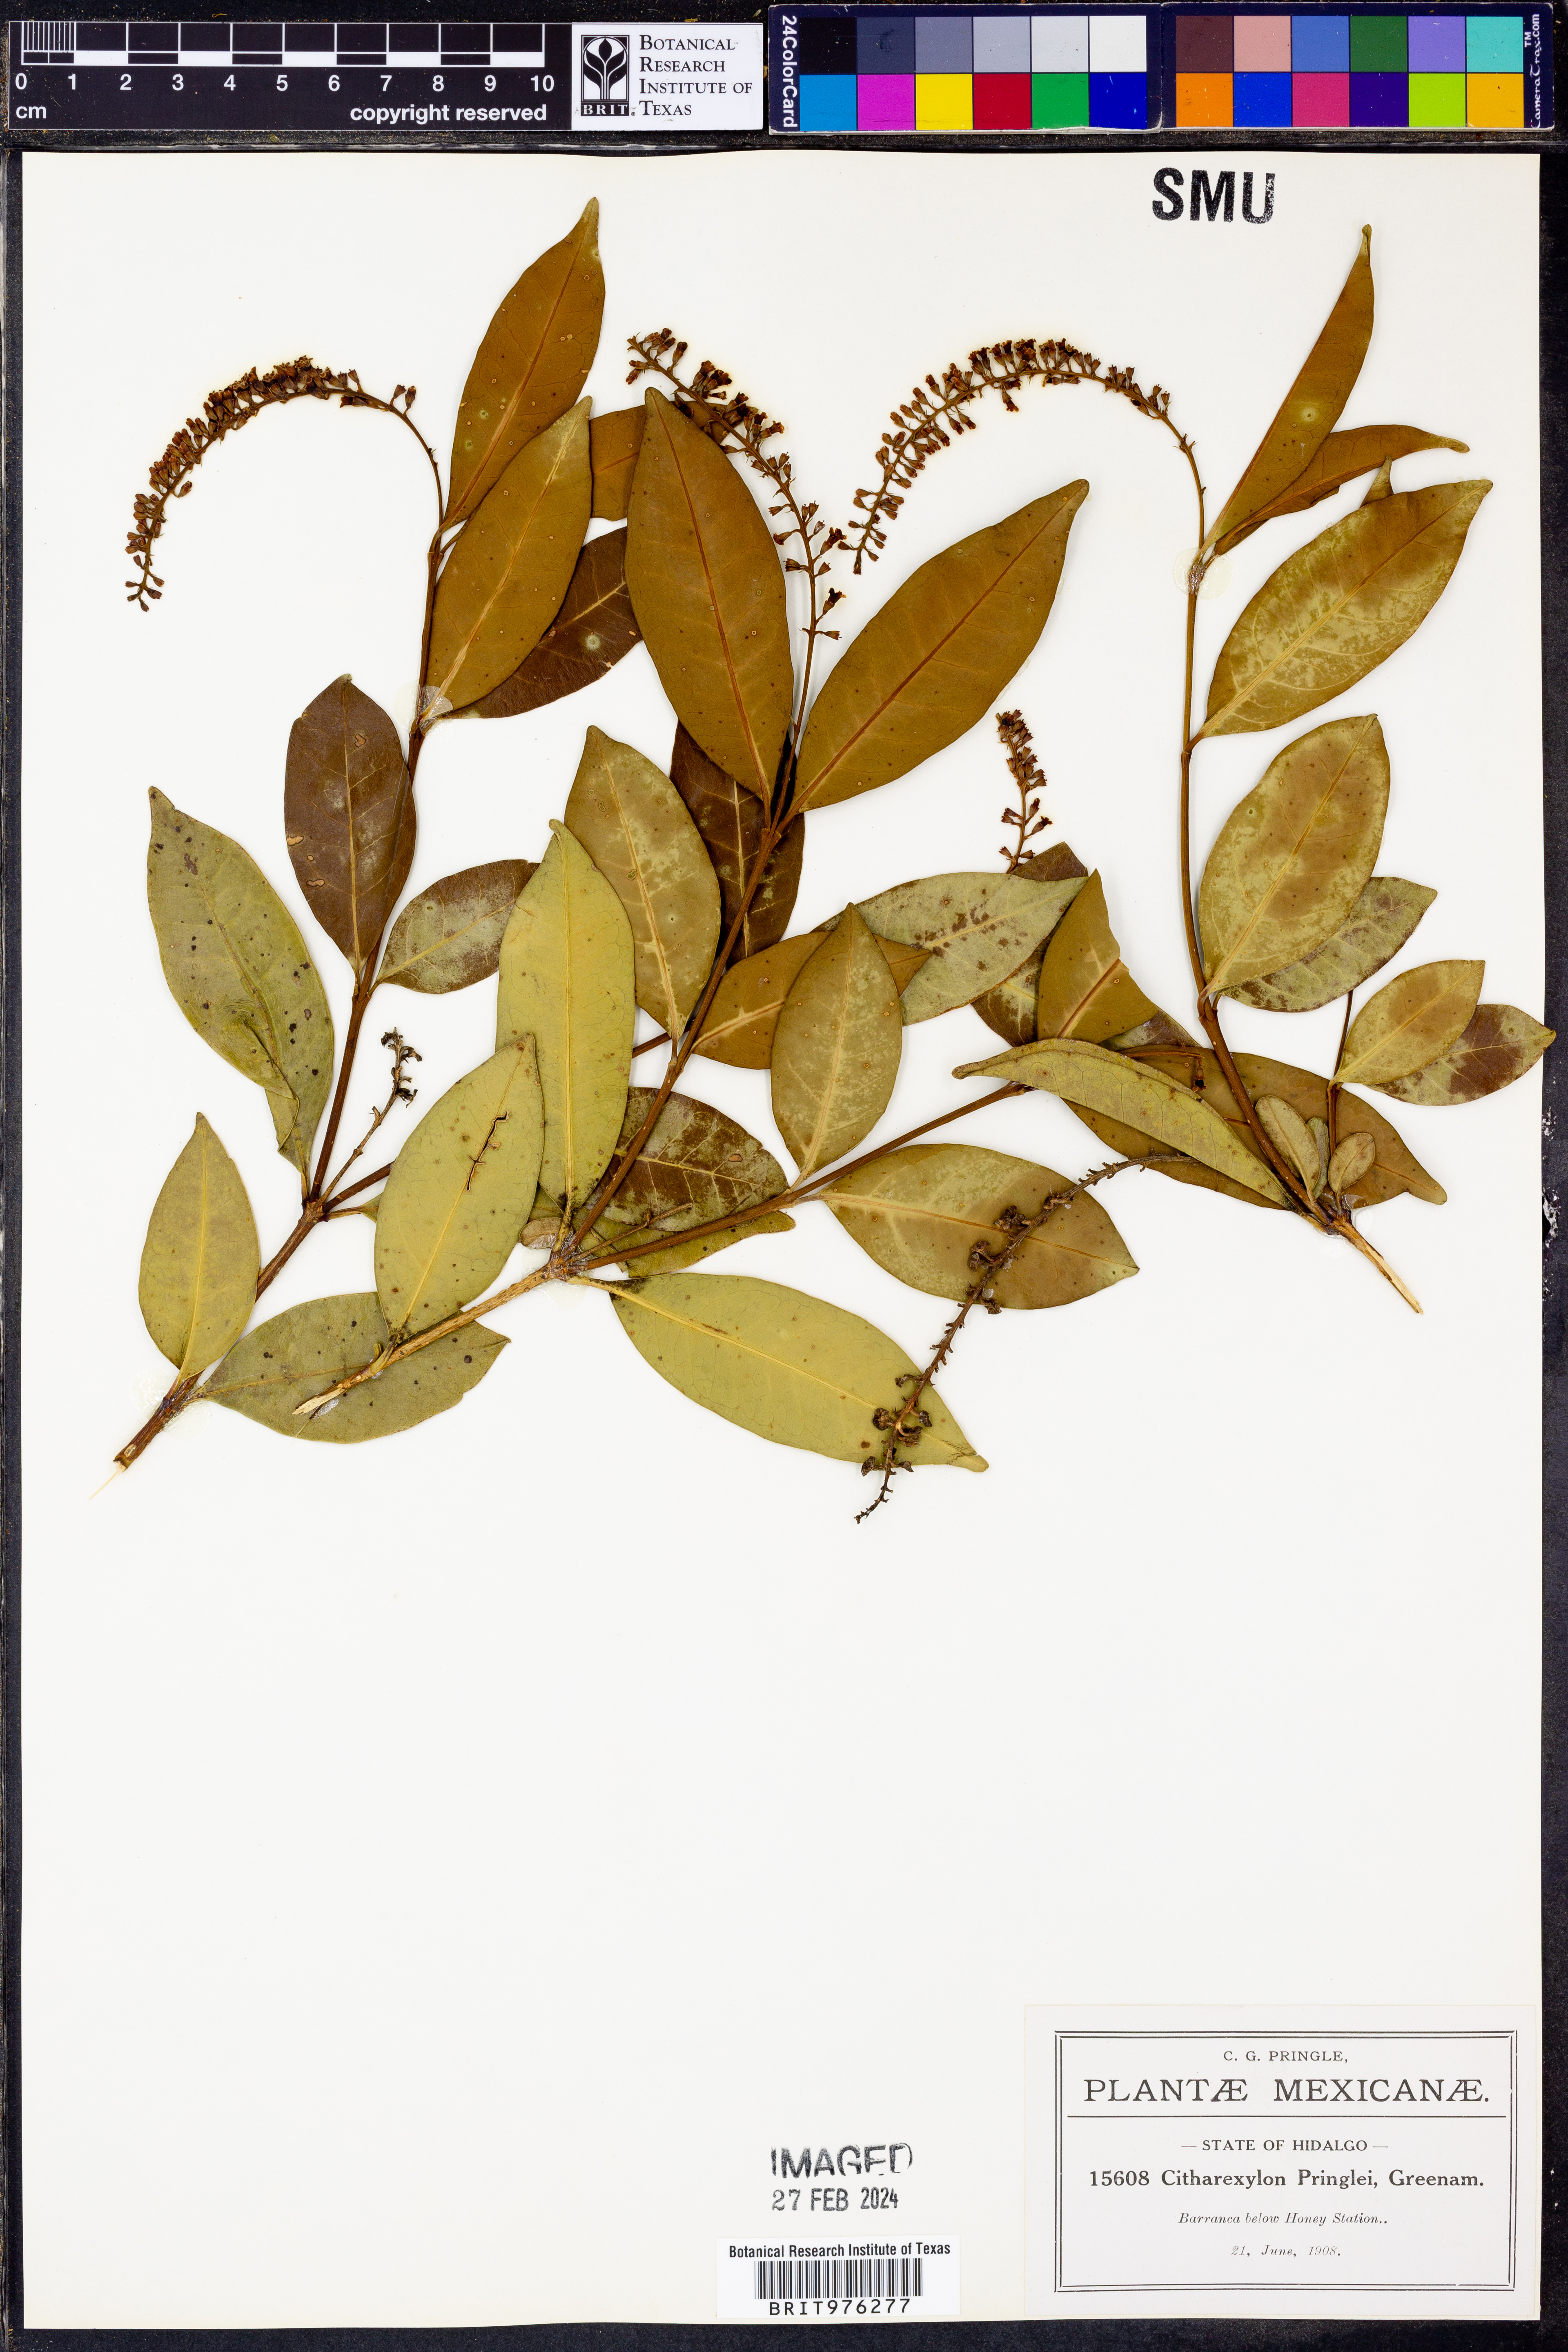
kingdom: Plantae
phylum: Tracheophyta
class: Magnoliopsida
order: Lamiales
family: Verbenaceae
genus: Citharexylum
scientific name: Citharexylum
